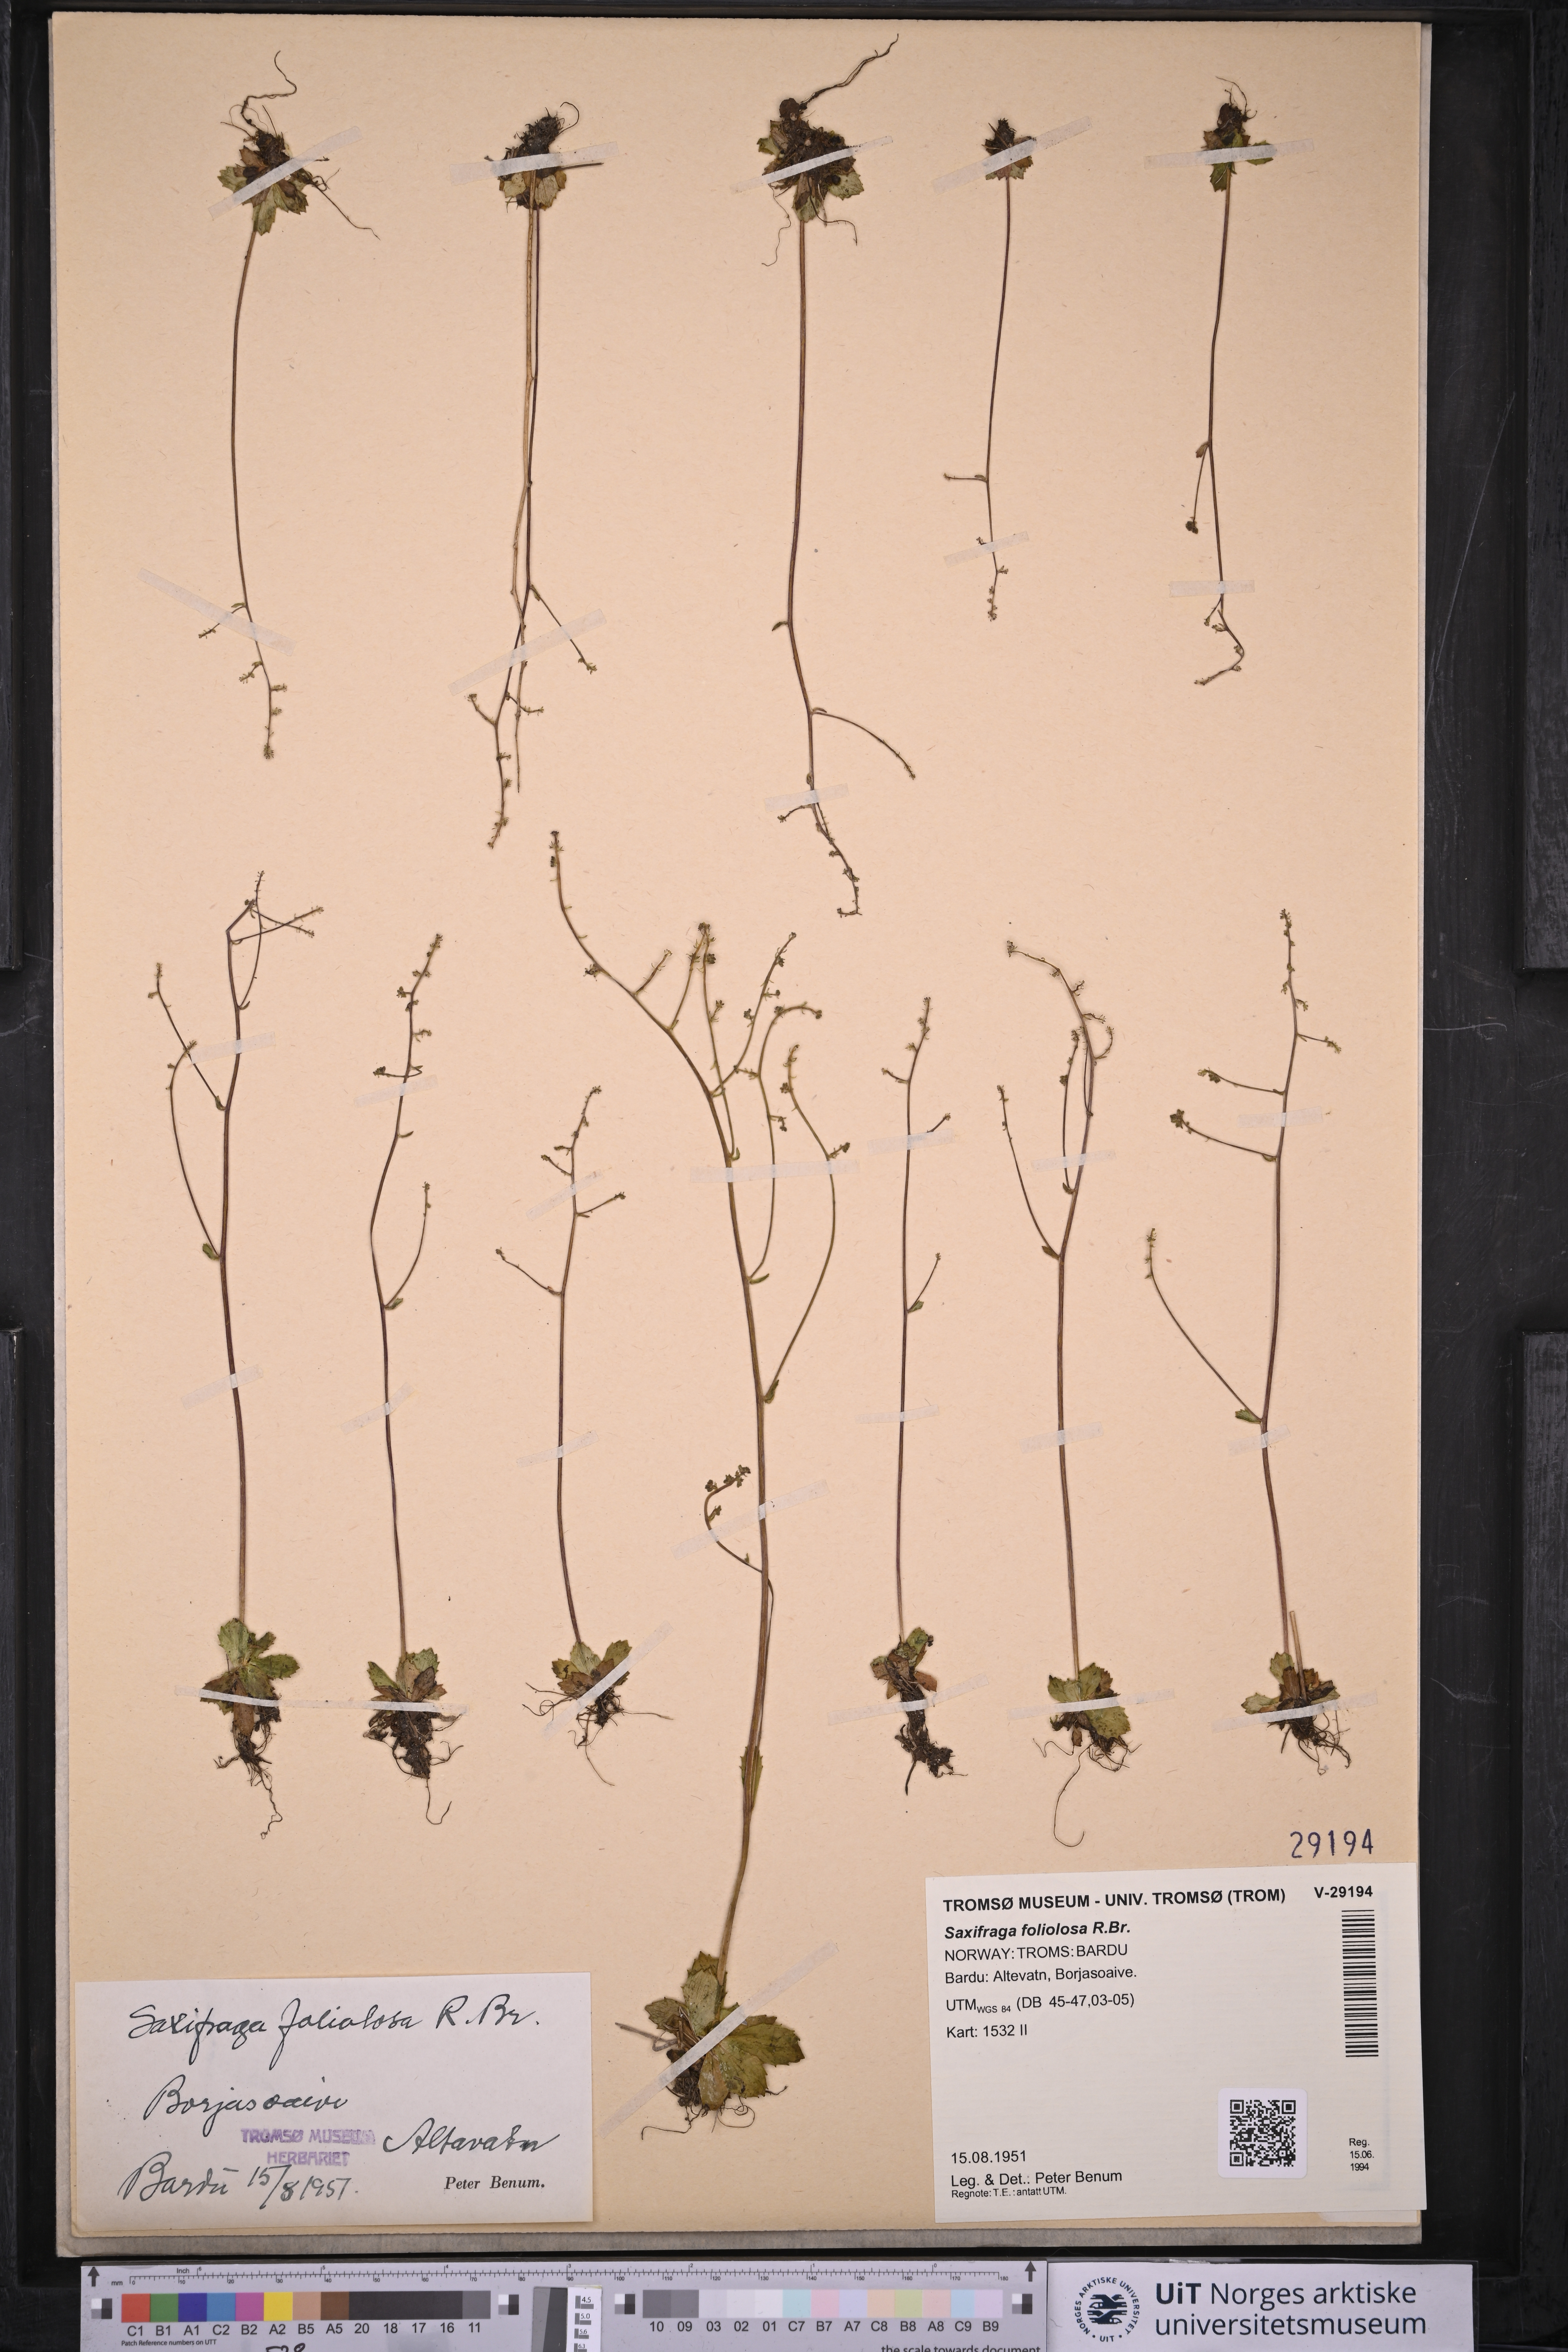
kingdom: Plantae
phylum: Tracheophyta
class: Magnoliopsida
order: Saxifragales
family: Saxifragaceae
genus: Micranthes
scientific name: Micranthes foliolosa
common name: Leafystem saxifrage
